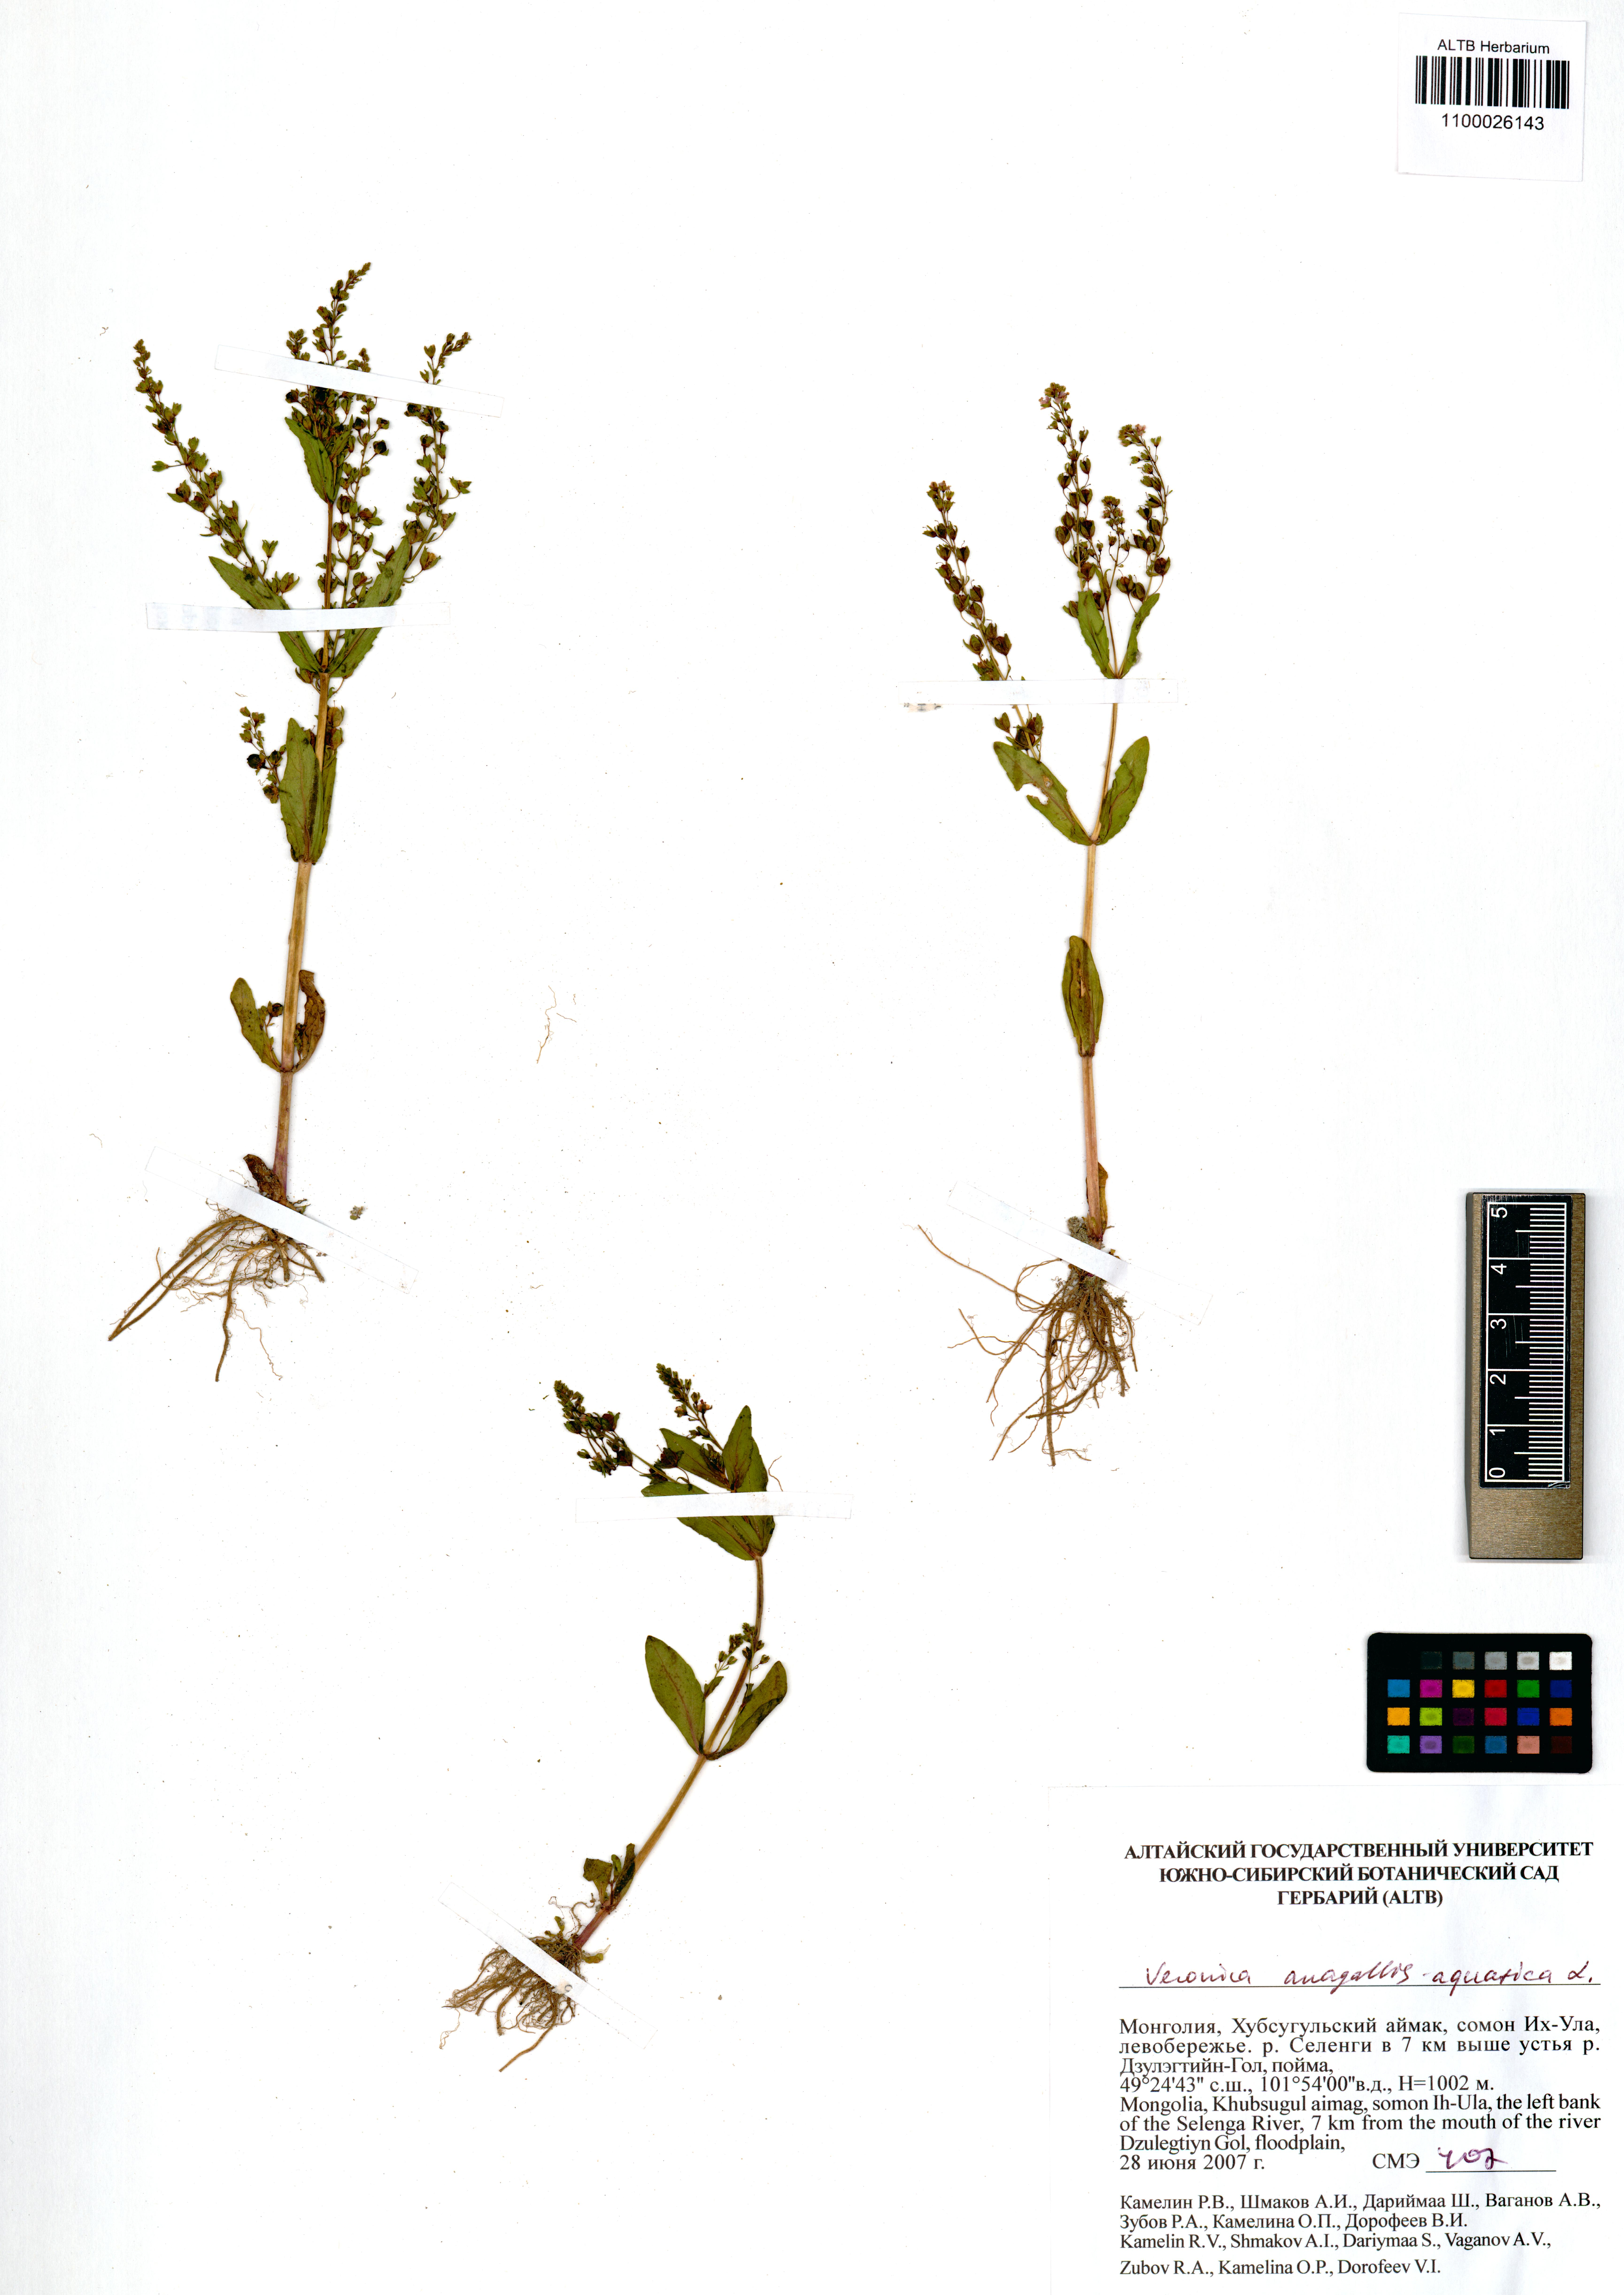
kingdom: Plantae
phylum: Tracheophyta
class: Magnoliopsida
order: Lamiales
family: Plantaginaceae
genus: Veronica
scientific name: Veronica anagallis-aquatica
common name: Water speedwell
